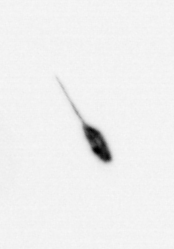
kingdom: Animalia
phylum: Arthropoda
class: Copepoda
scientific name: Copepoda
